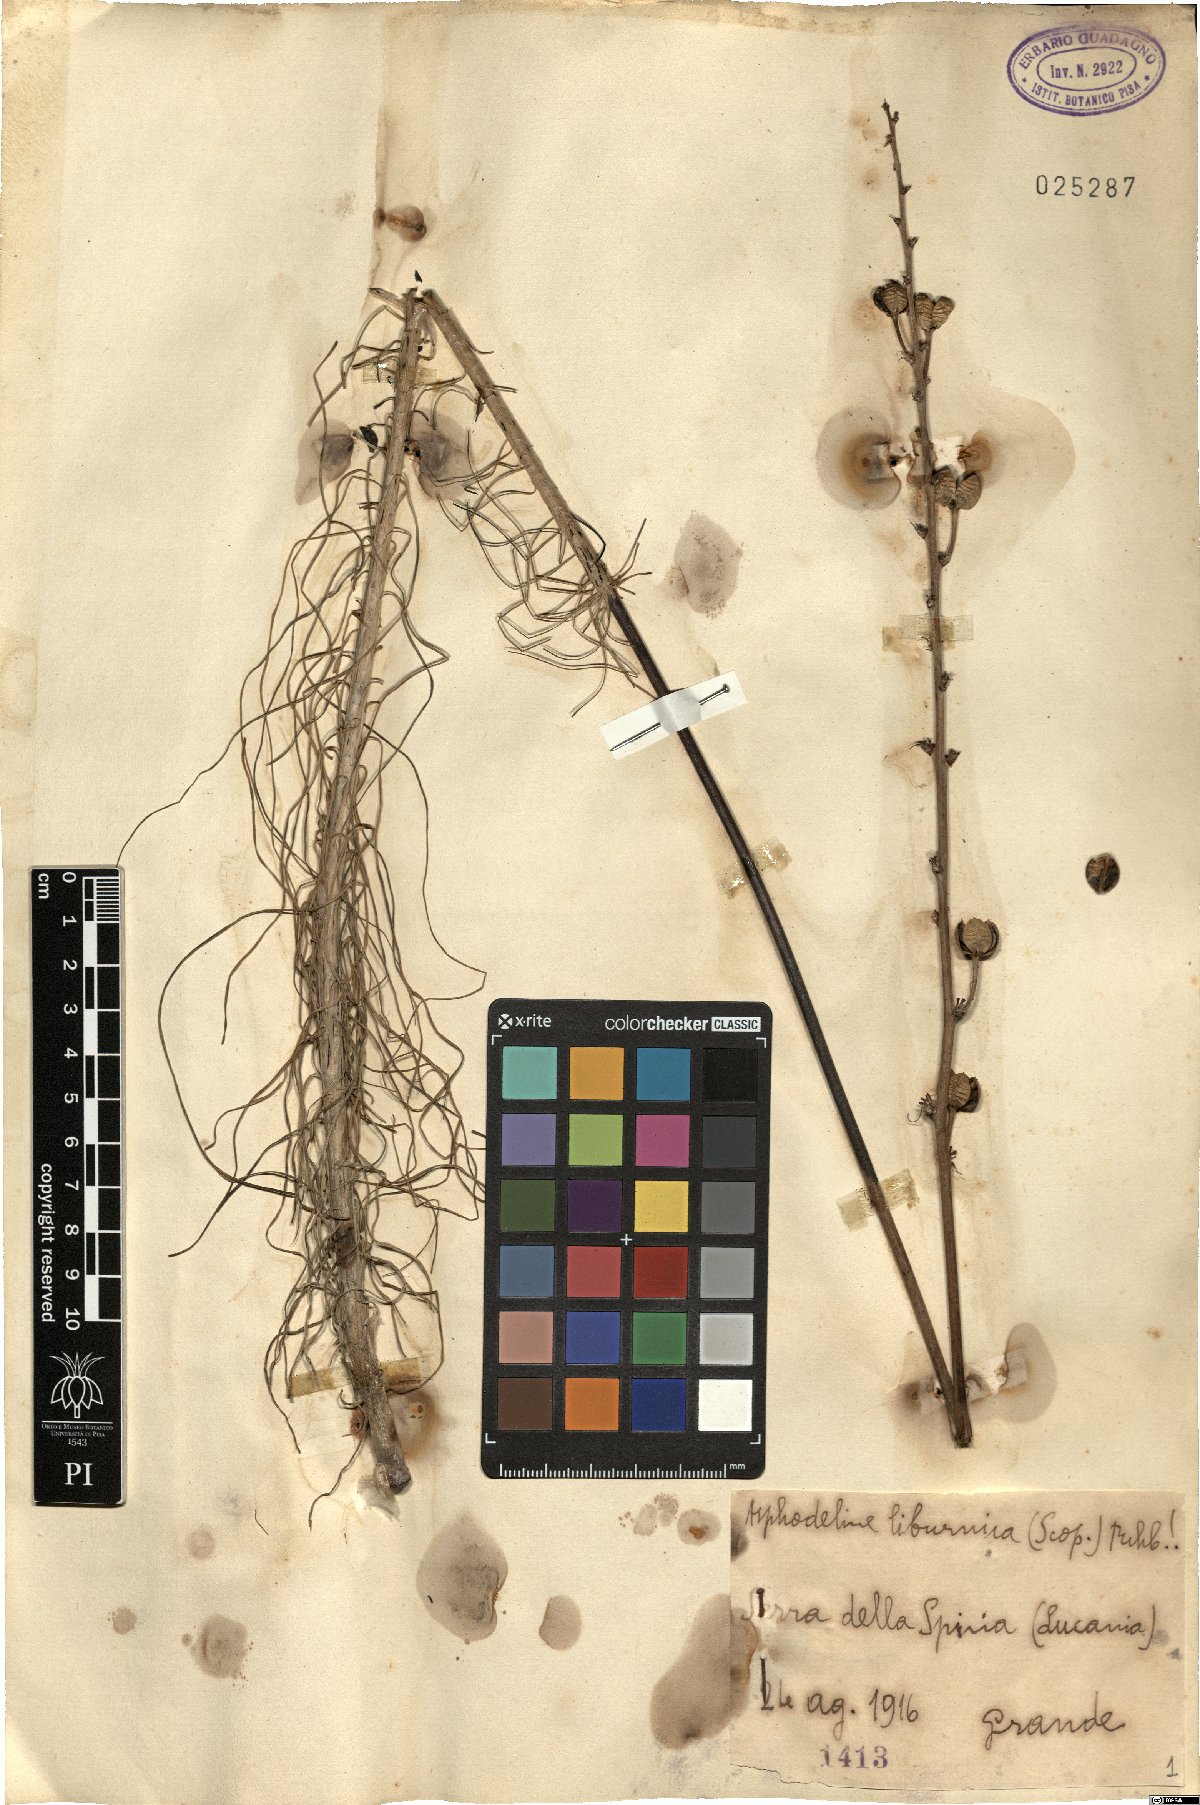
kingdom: Plantae
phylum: Tracheophyta
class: Liliopsida
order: Asparagales
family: Asphodelaceae
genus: Asphodeline
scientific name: Asphodeline liburnica
